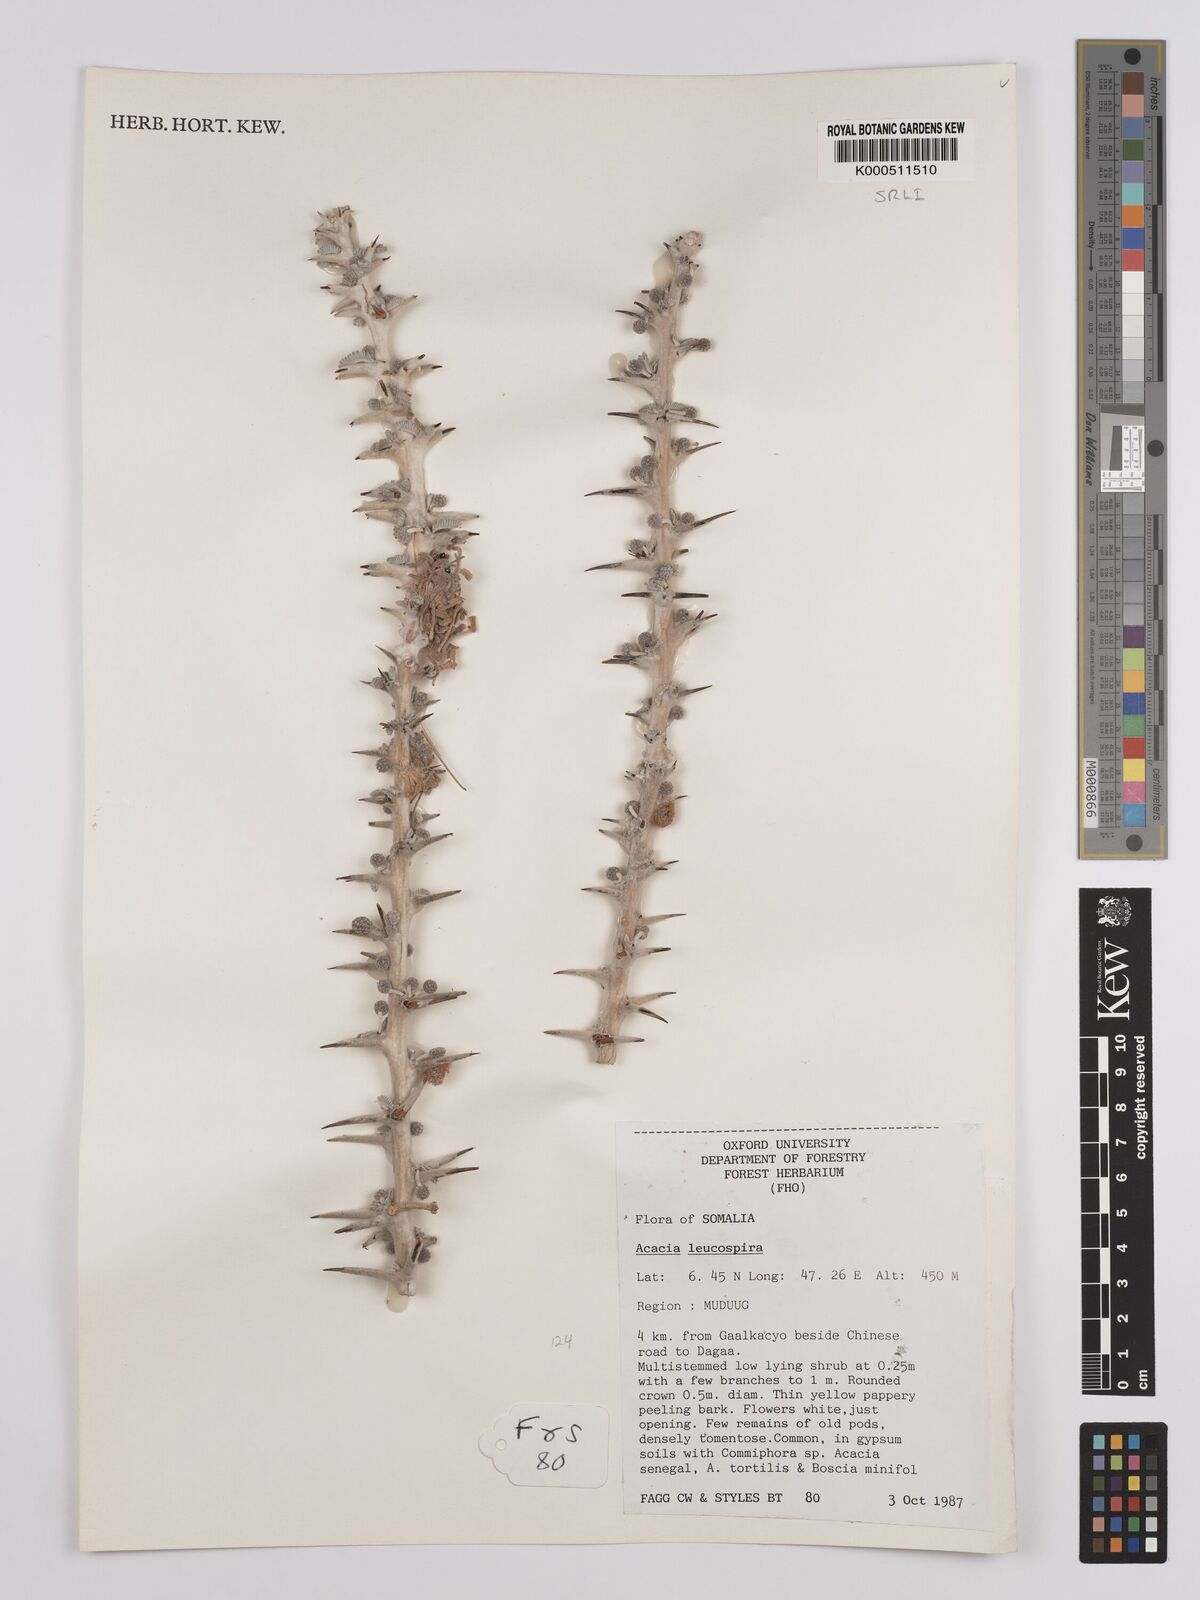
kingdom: Plantae
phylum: Tracheophyta
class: Magnoliopsida
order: Fabales
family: Fabaceae
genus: Vachellia
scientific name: Vachellia leucospira
